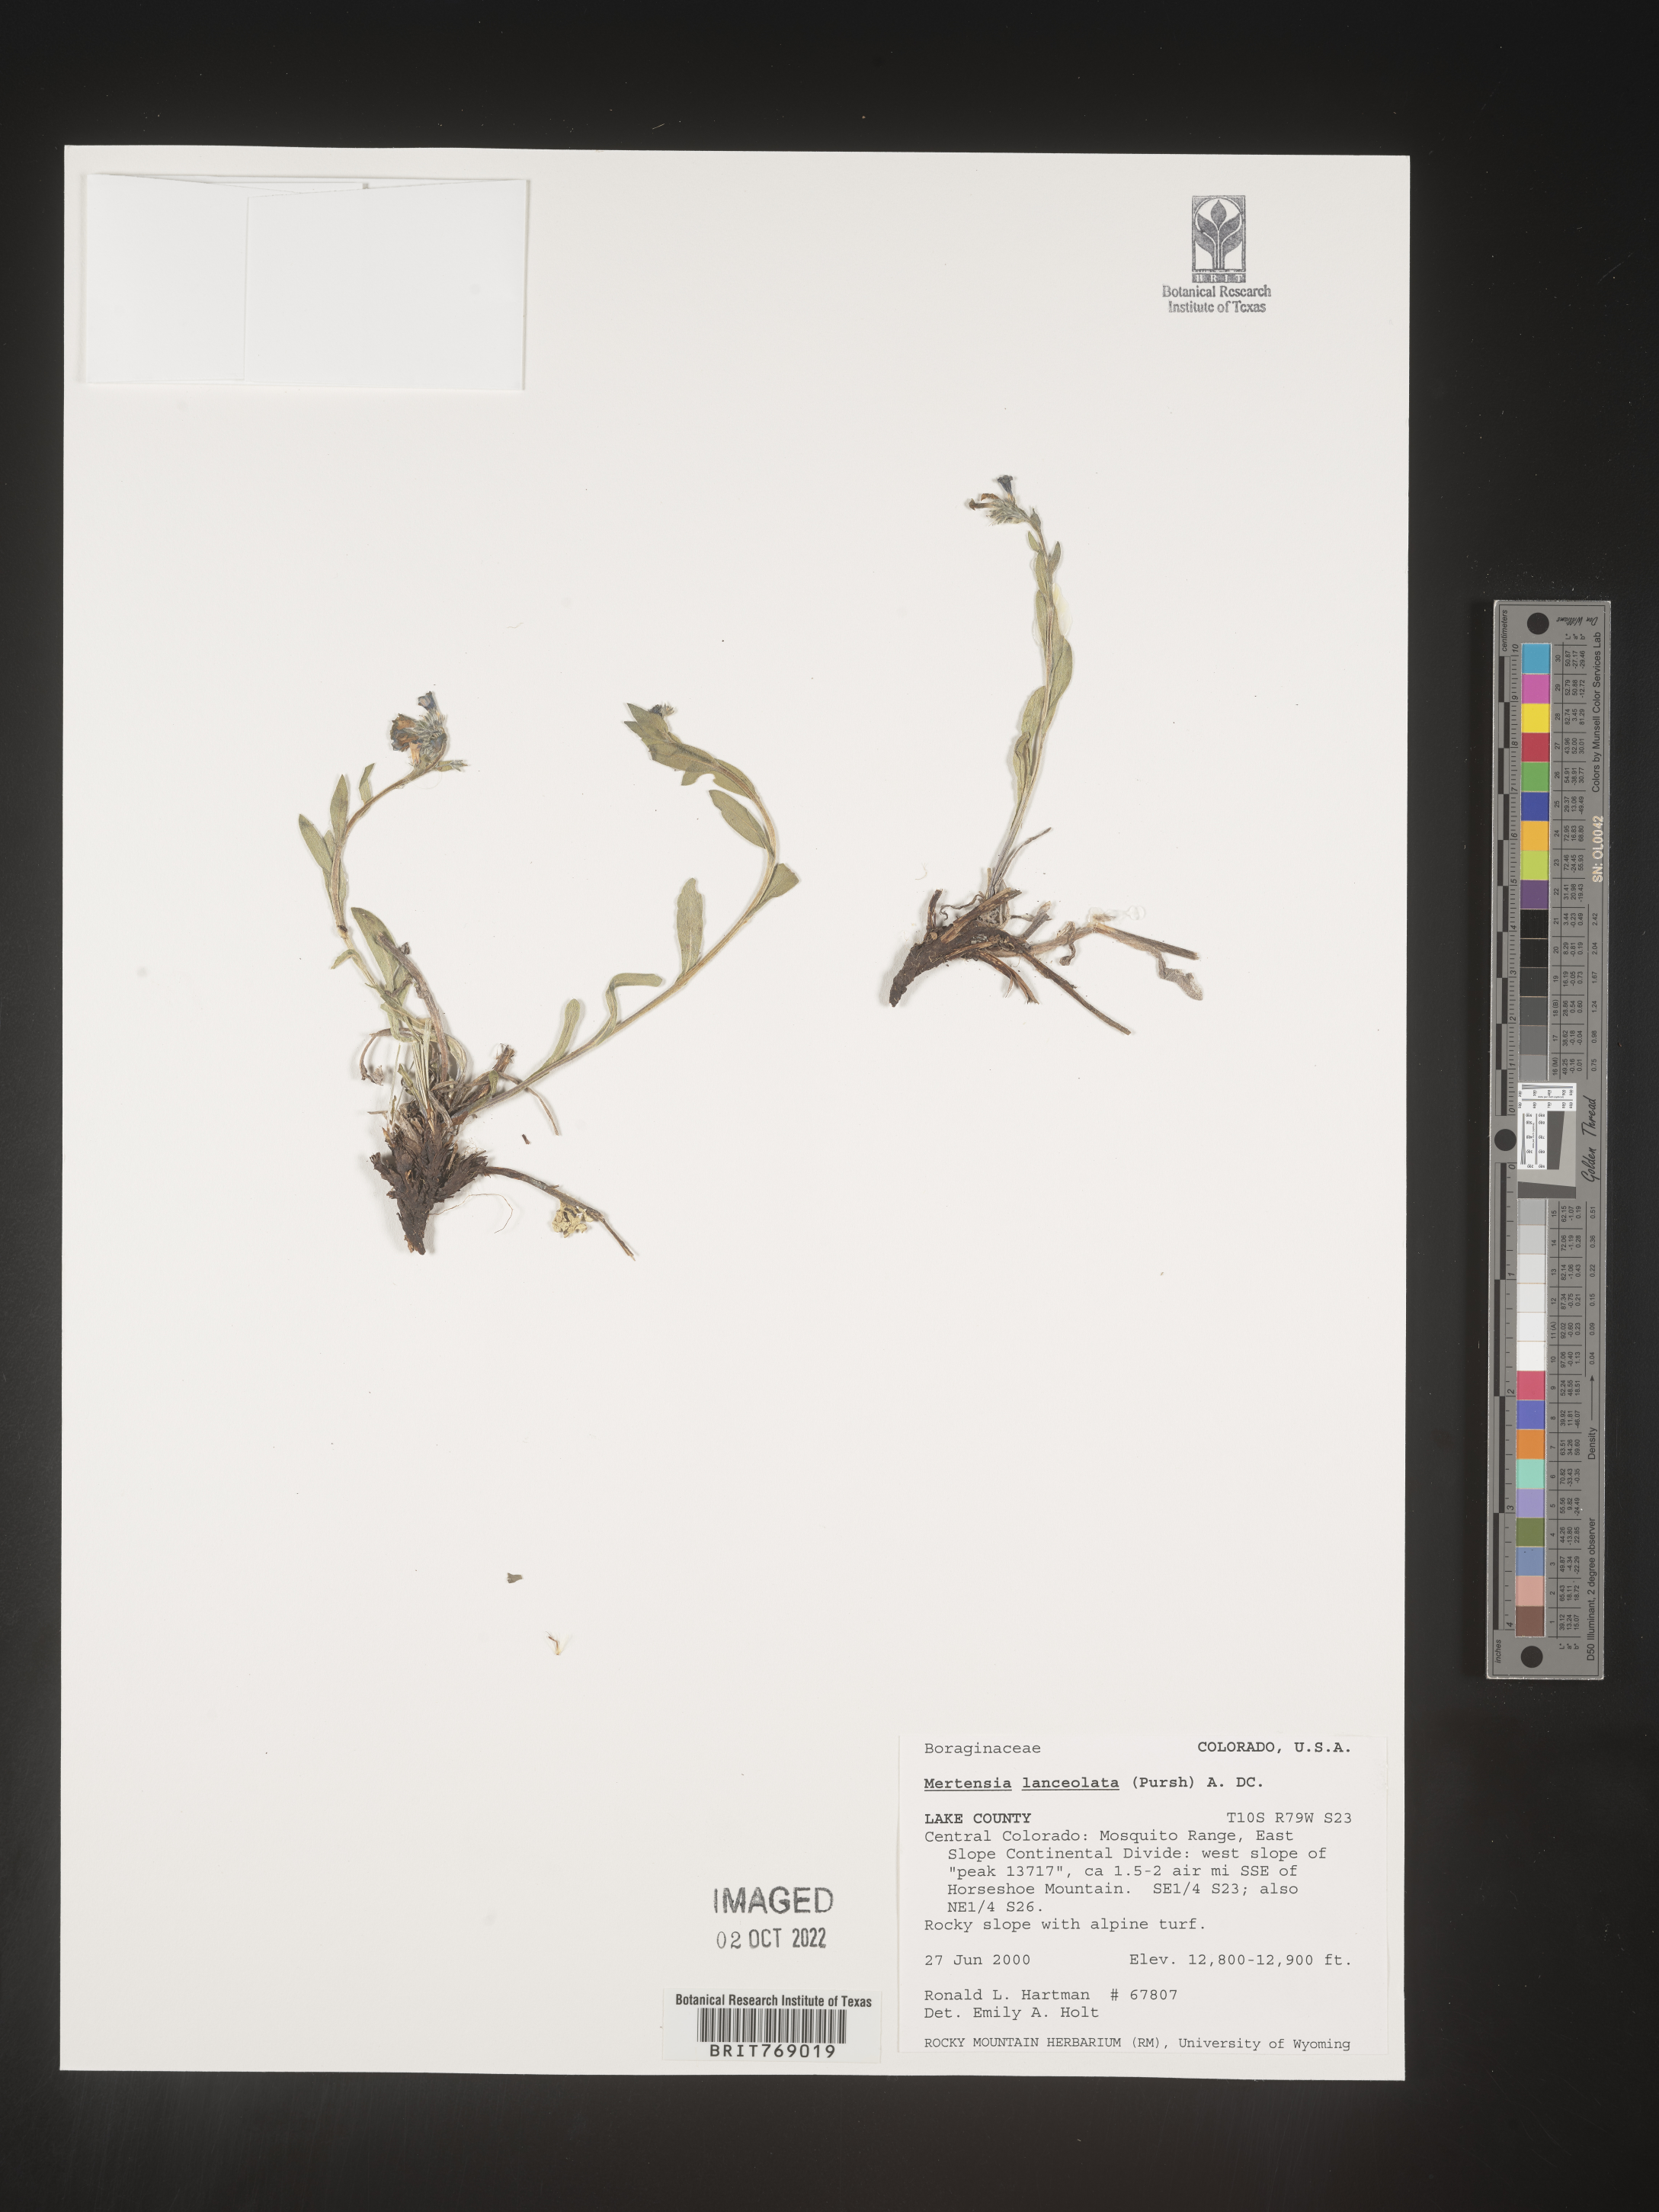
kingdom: Plantae
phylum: Tracheophyta
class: Magnoliopsida
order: Boraginales
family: Boraginaceae
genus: Mertensia
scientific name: Mertensia
